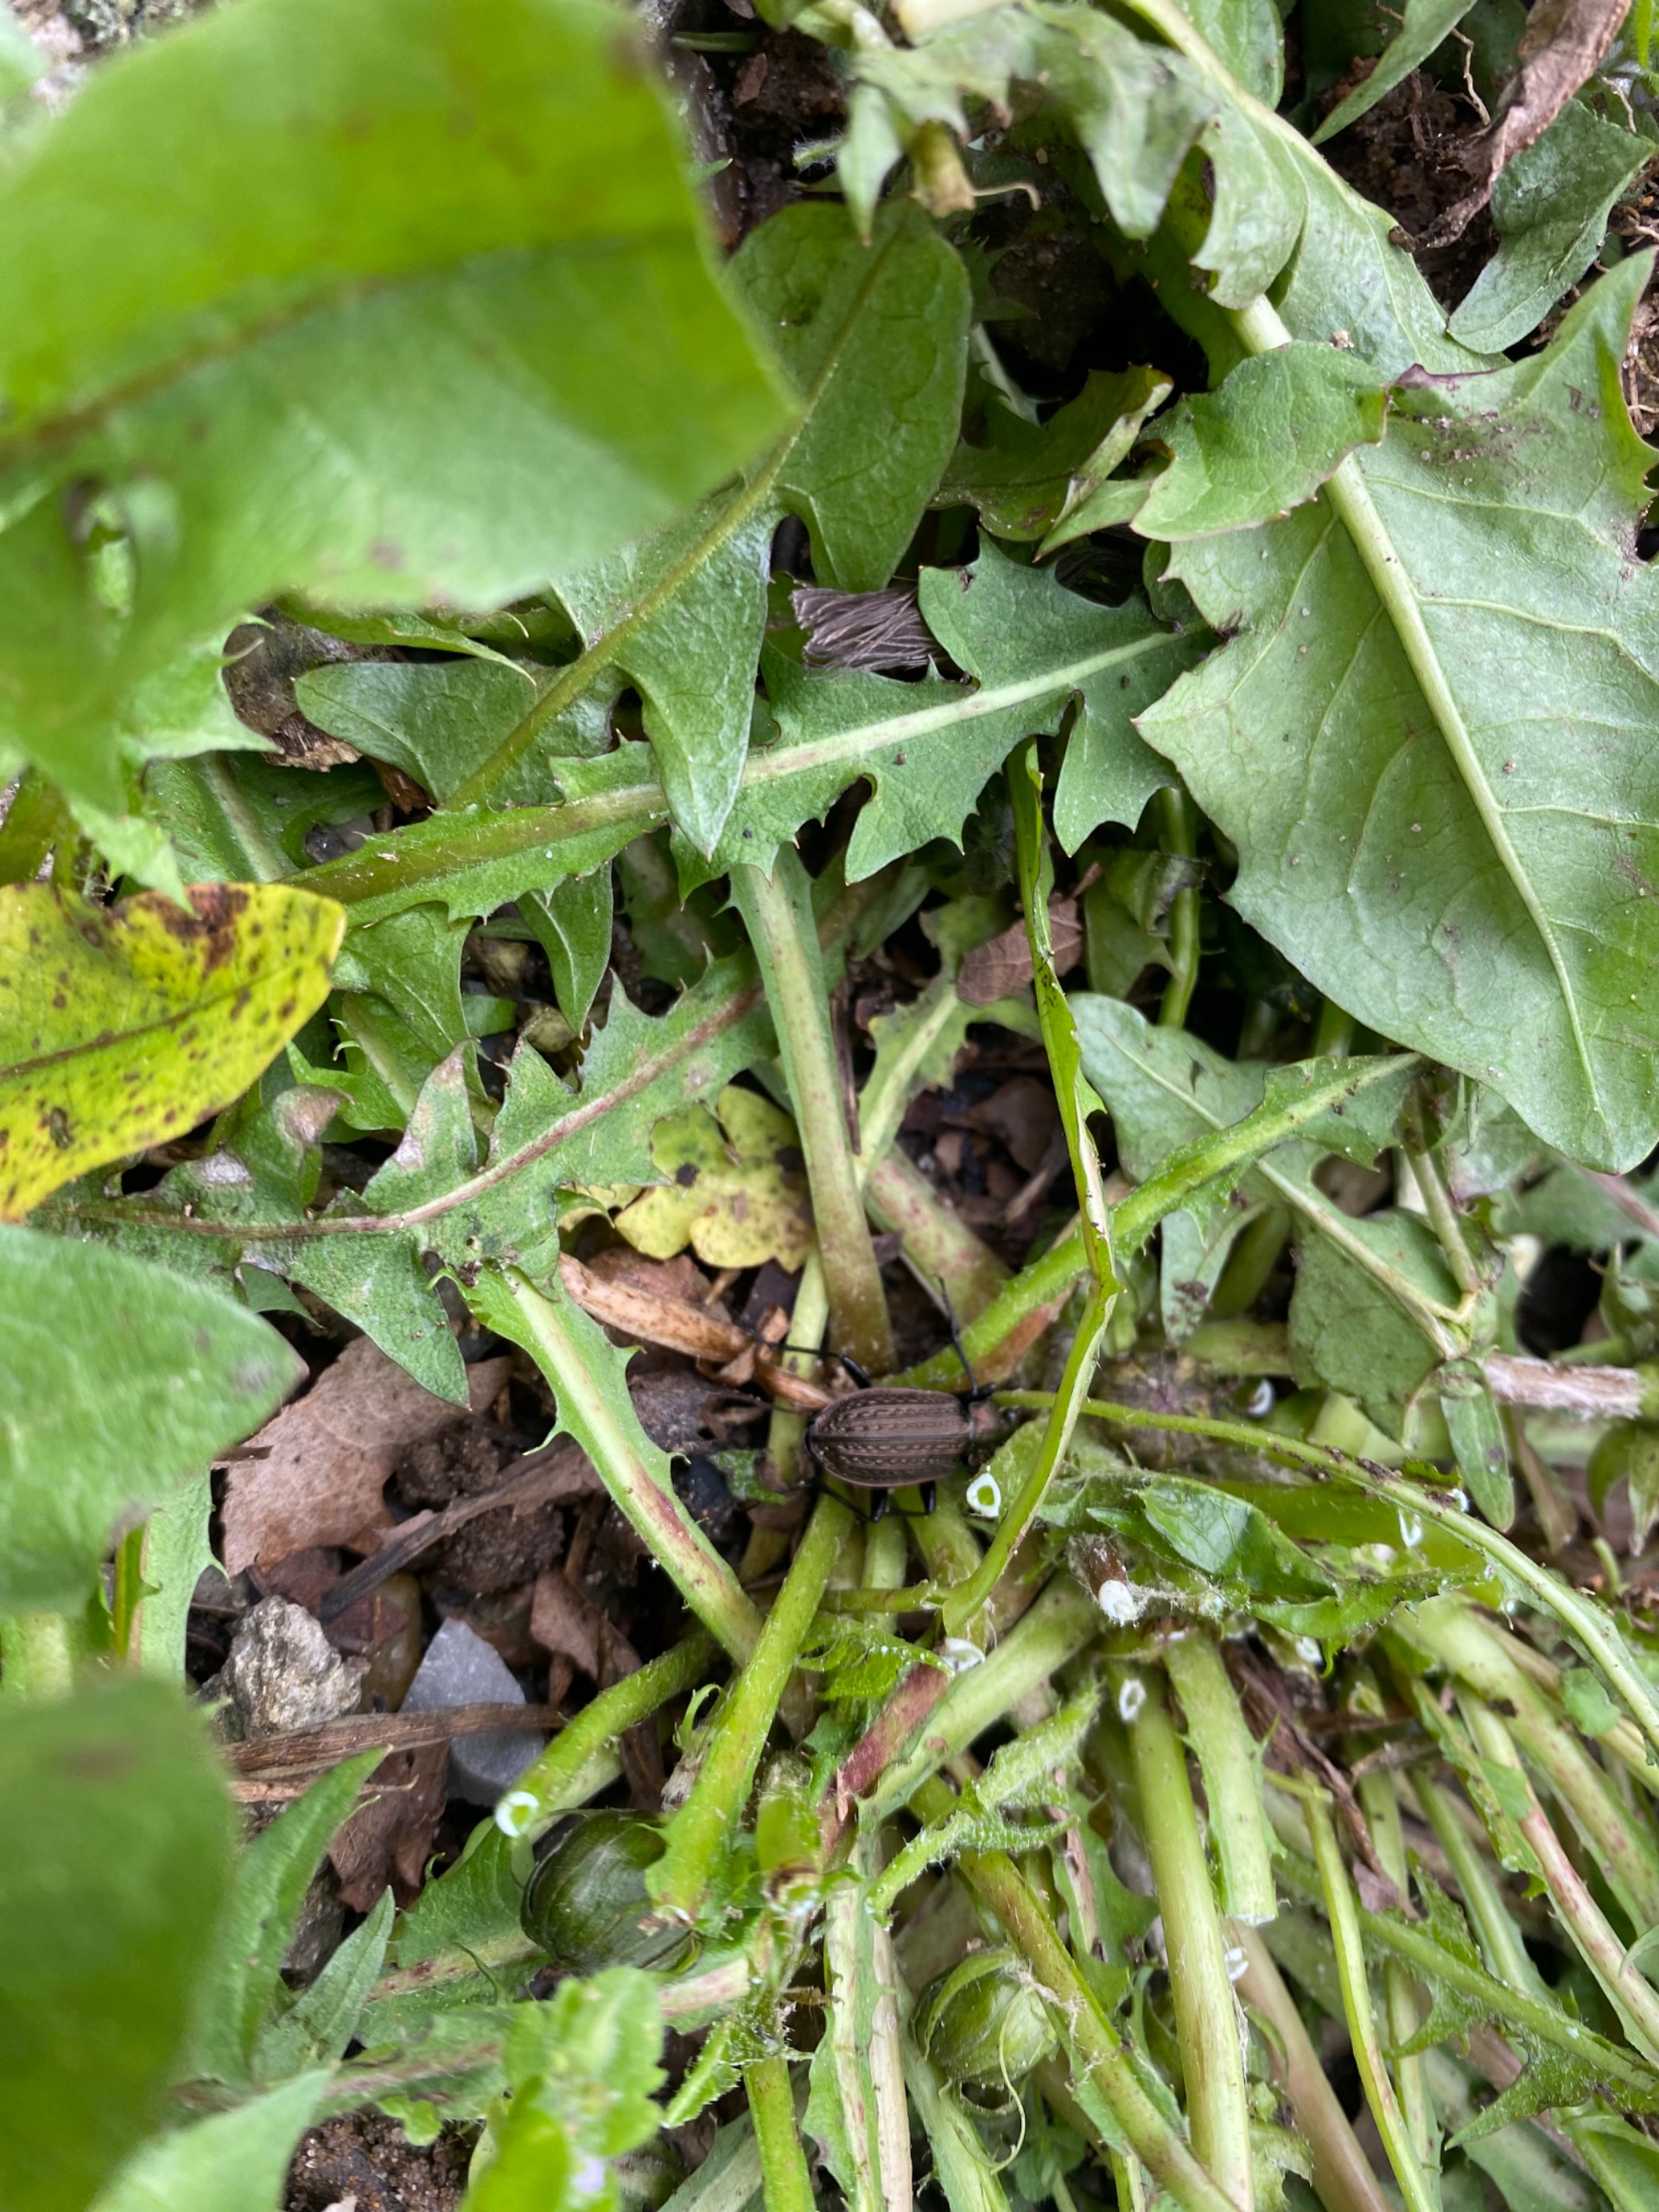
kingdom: Animalia
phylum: Arthropoda
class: Insecta
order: Coleoptera
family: Carabidae
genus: Carabus
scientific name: Carabus granulatus
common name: Kornet løber
